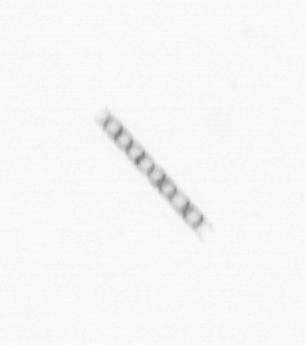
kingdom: Chromista
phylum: Ochrophyta
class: Bacillariophyceae
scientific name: Bacillariophyceae
